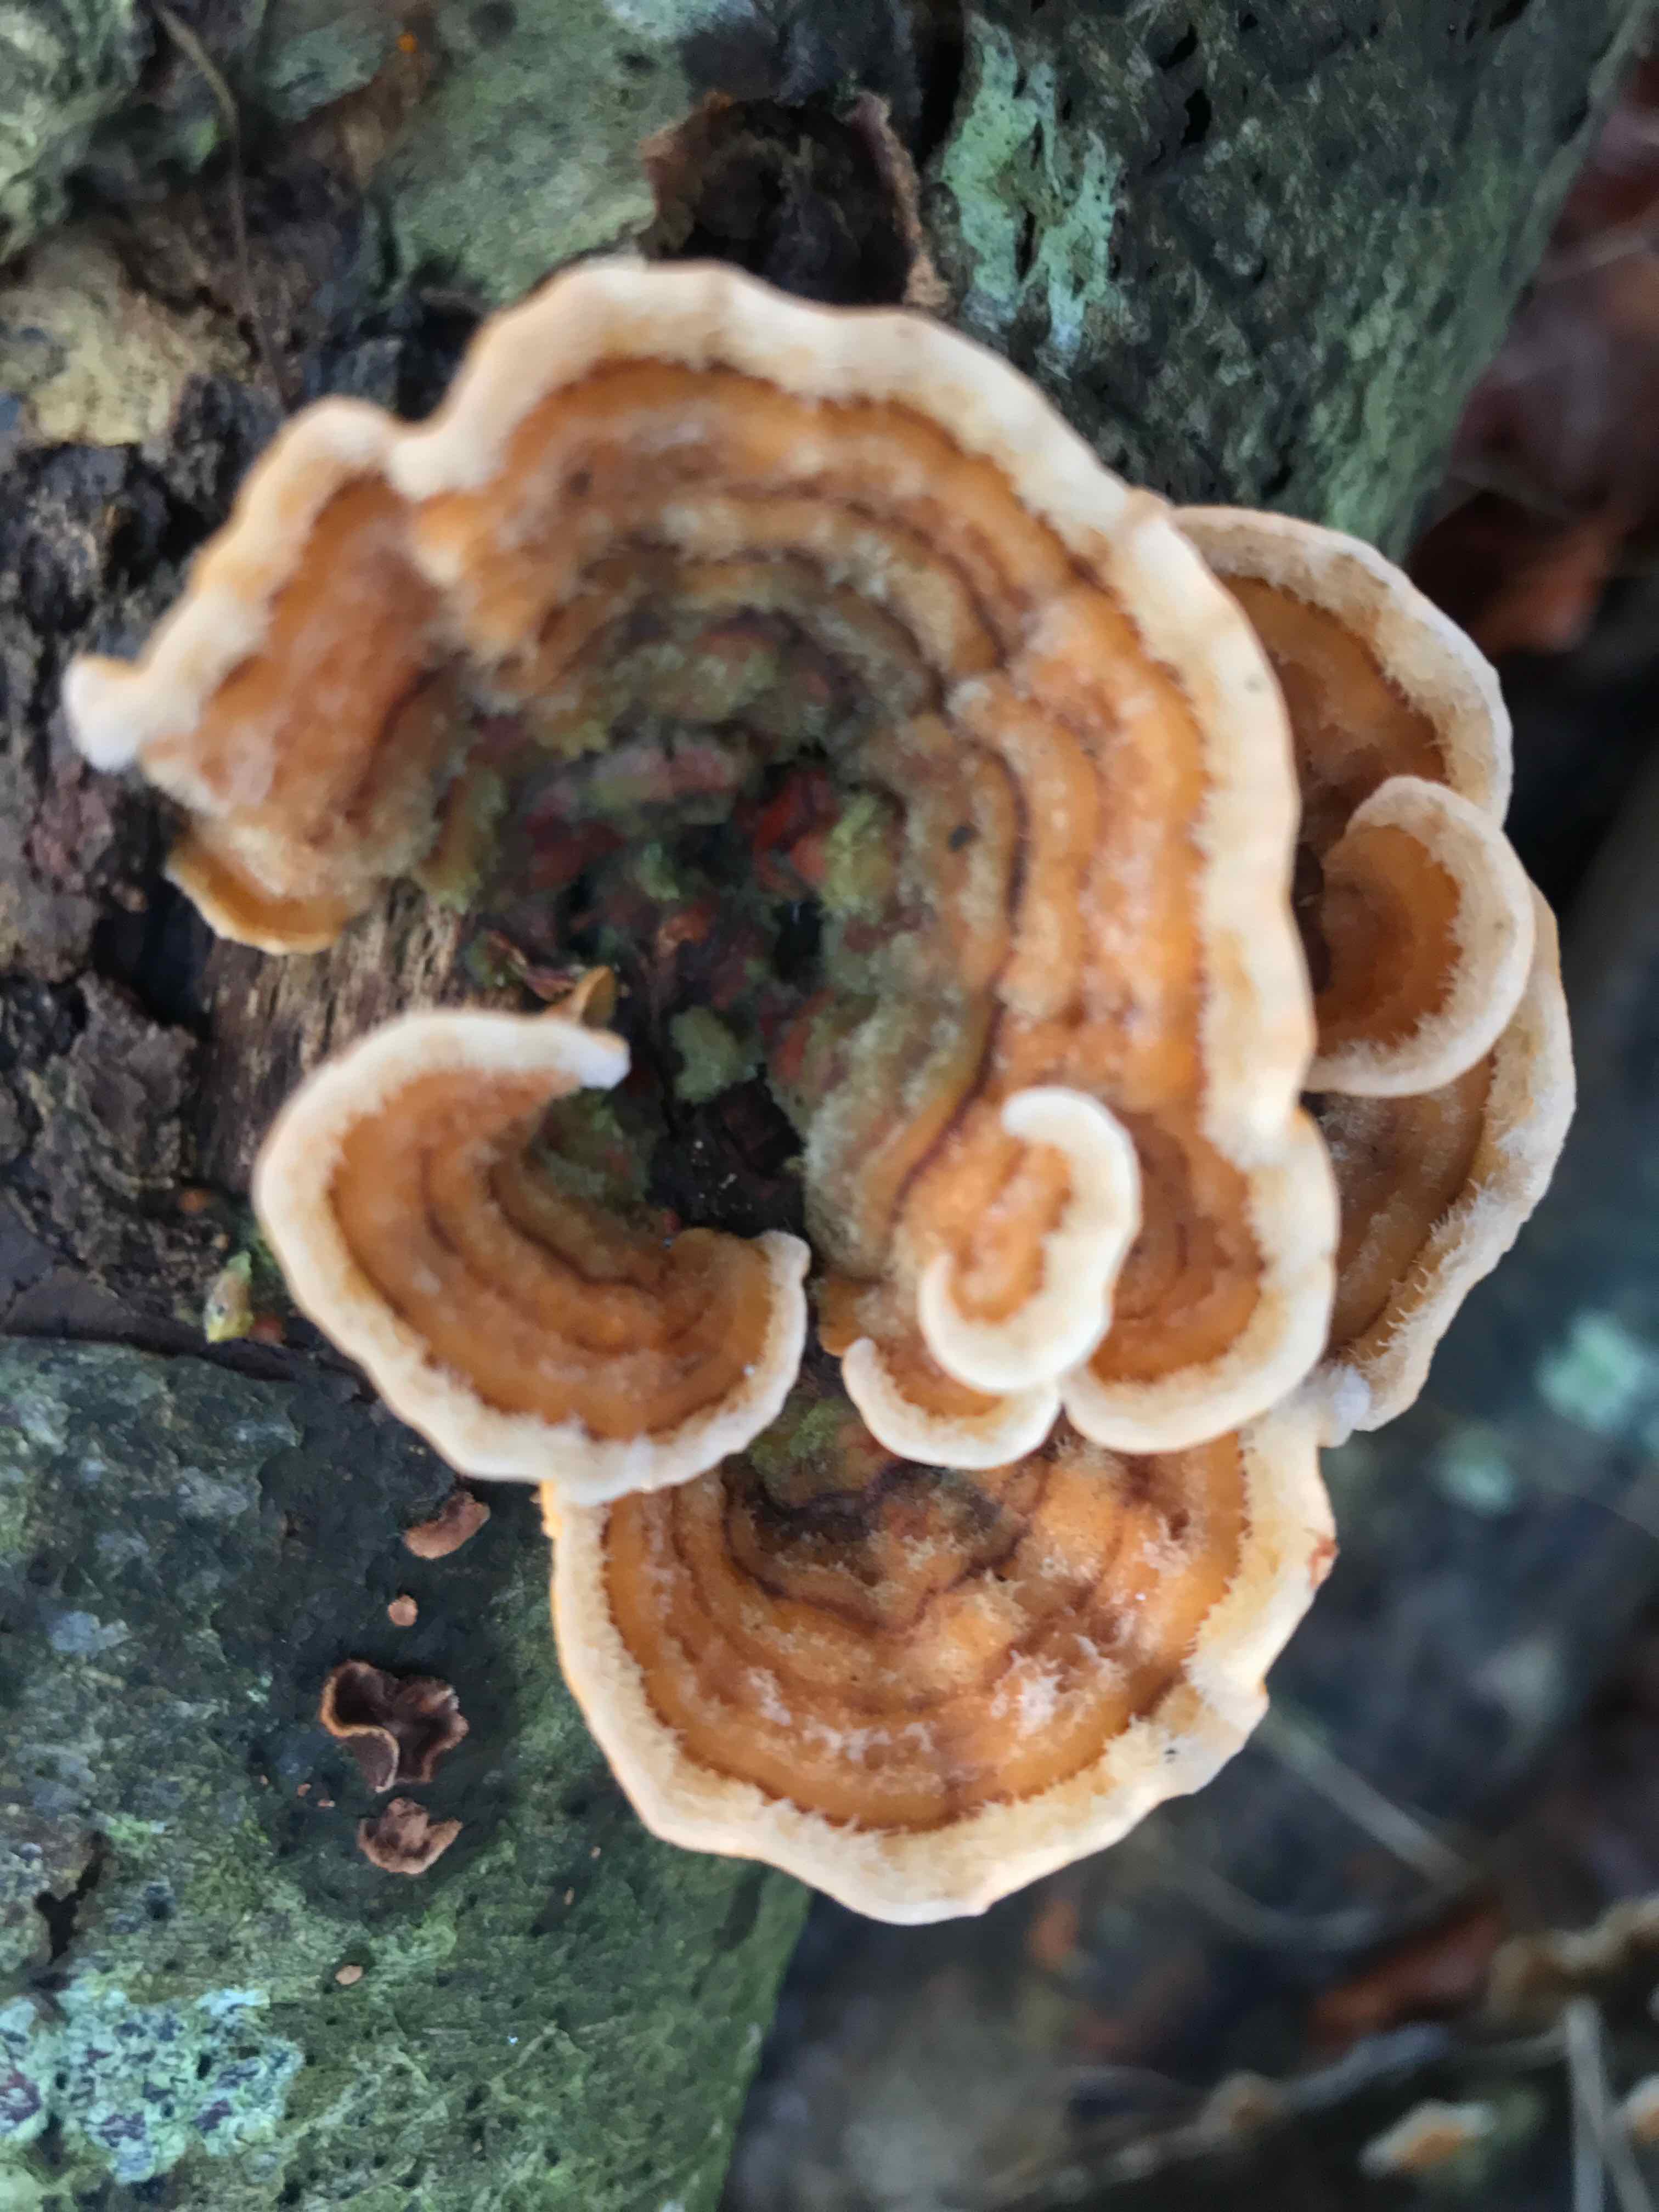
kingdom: Fungi
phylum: Basidiomycota
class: Agaricomycetes
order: Russulales
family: Stereaceae
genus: Stereum
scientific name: Stereum hirsutum
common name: håret lædersvamp
